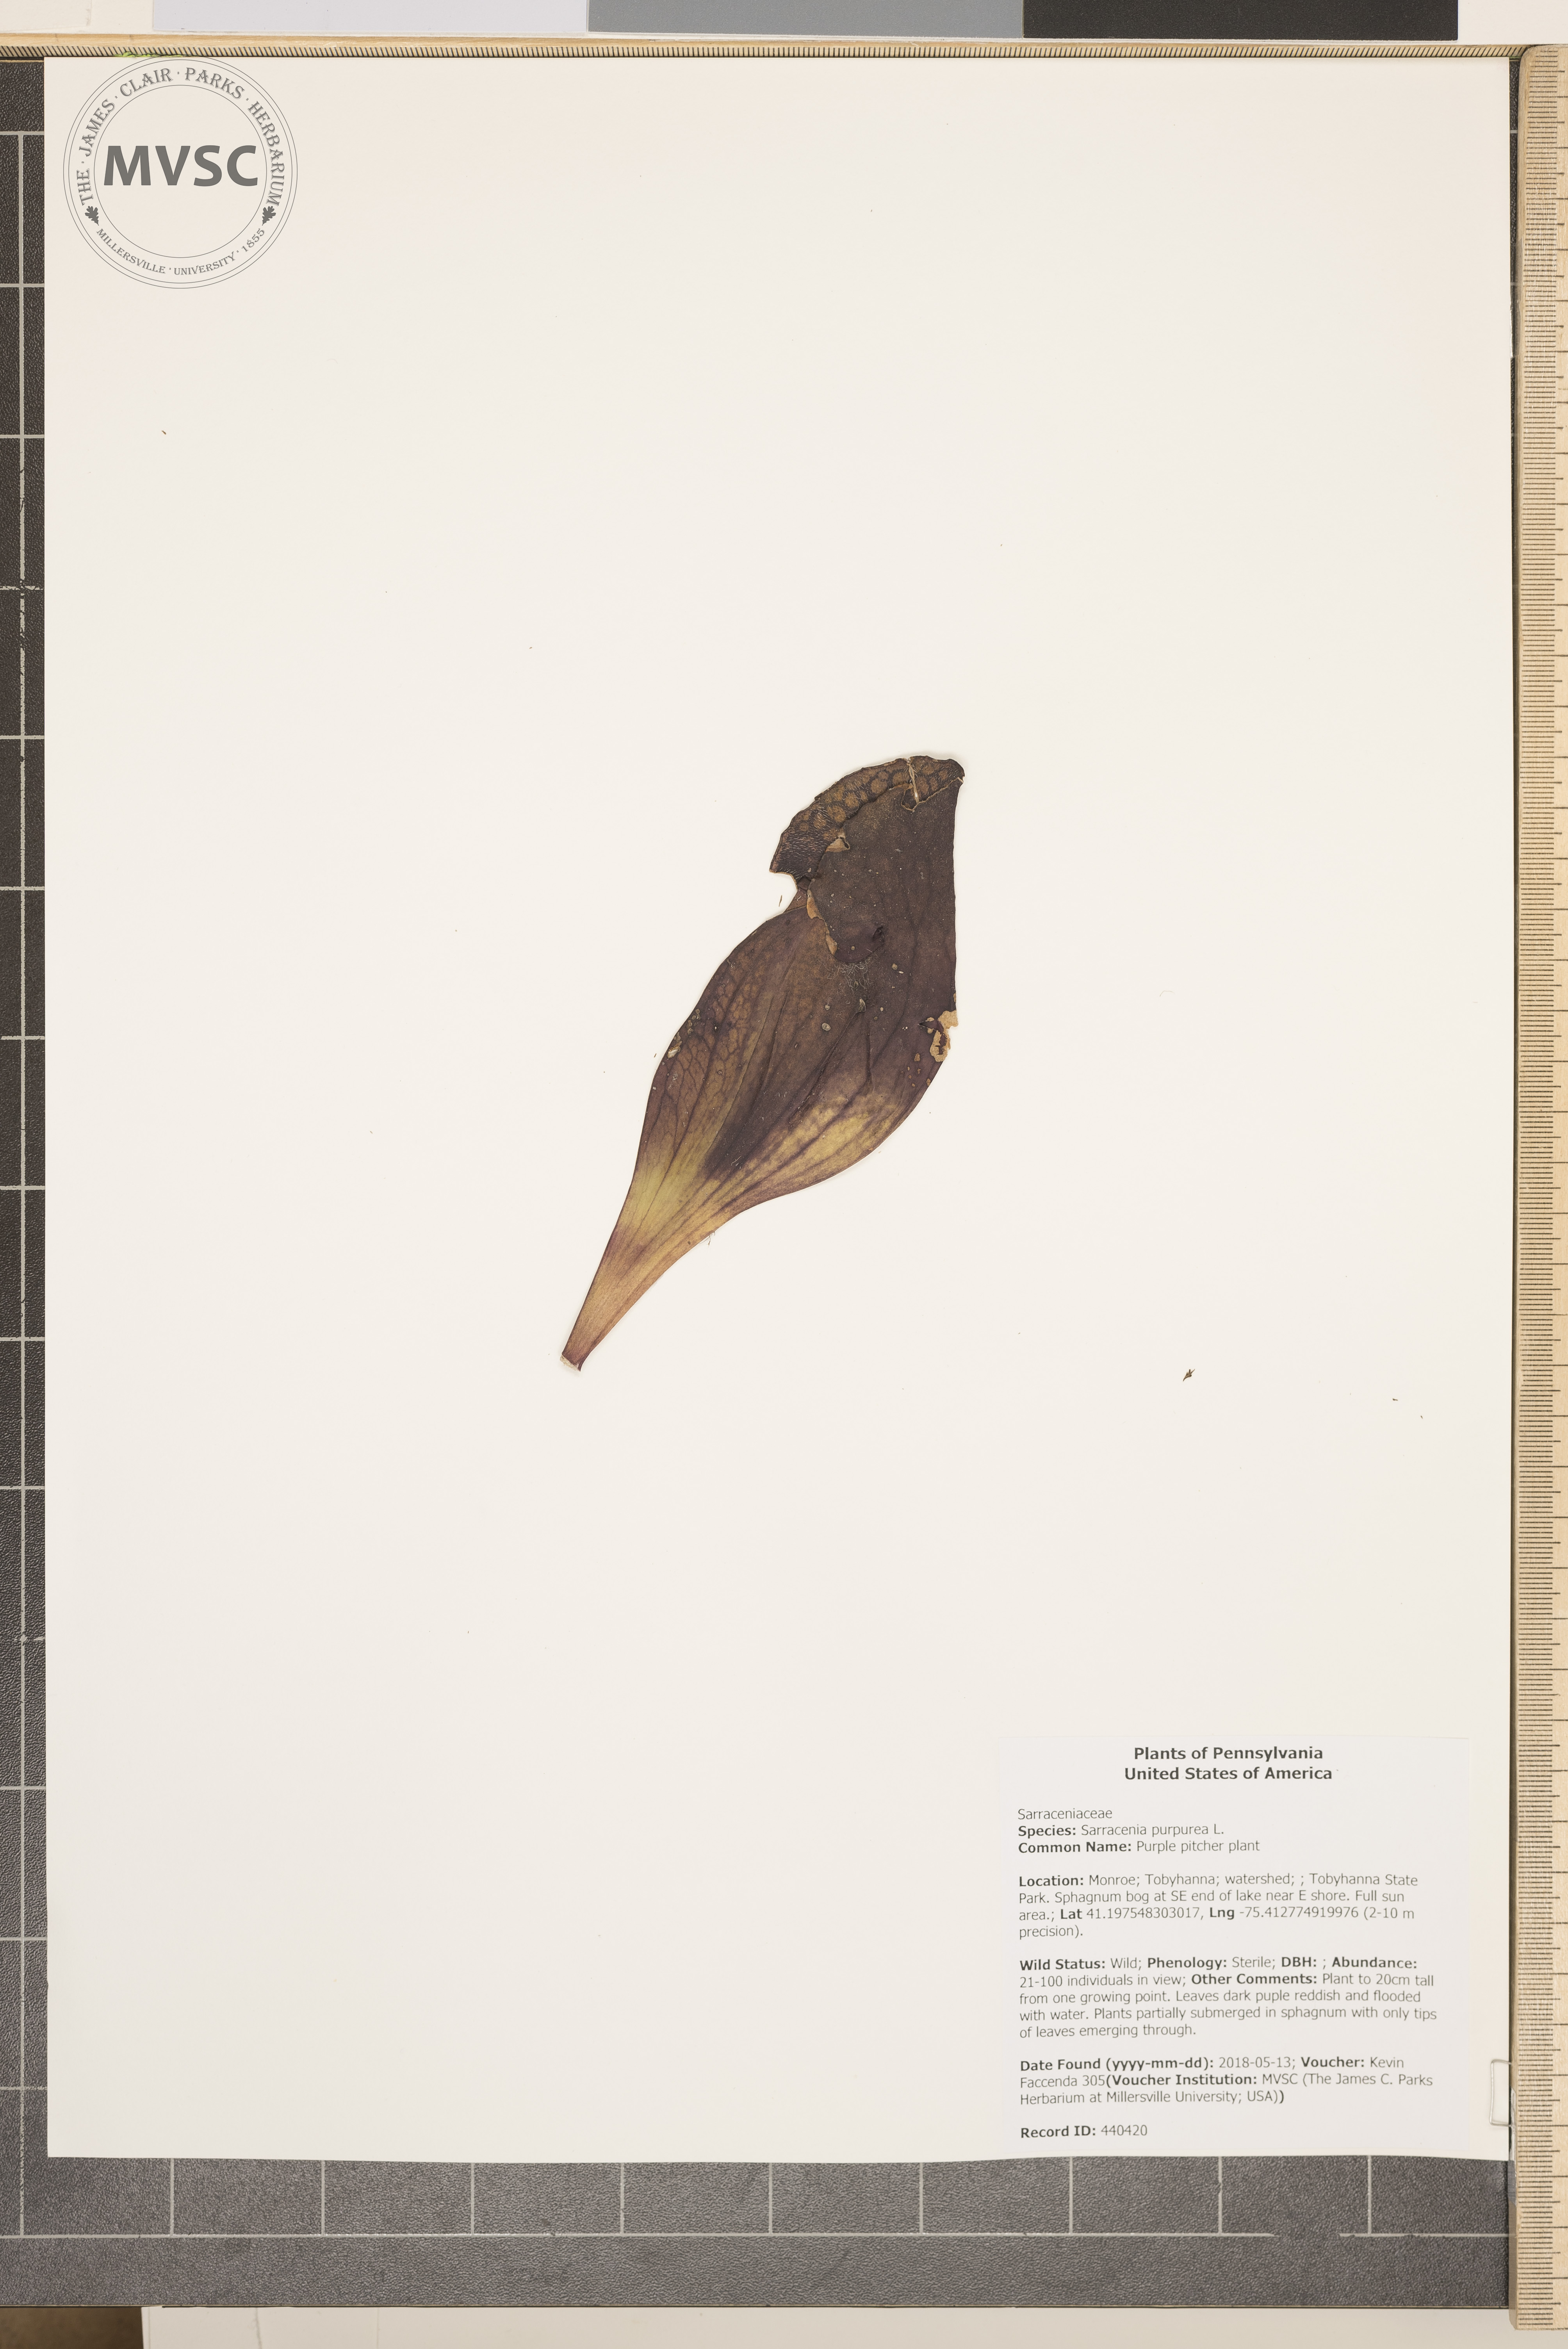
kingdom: Plantae
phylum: Tracheophyta
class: Magnoliopsida
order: Ericales
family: Sarraceniaceae
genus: Sarracenia
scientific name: Sarracenia purpurea
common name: Purple pitcher plant
